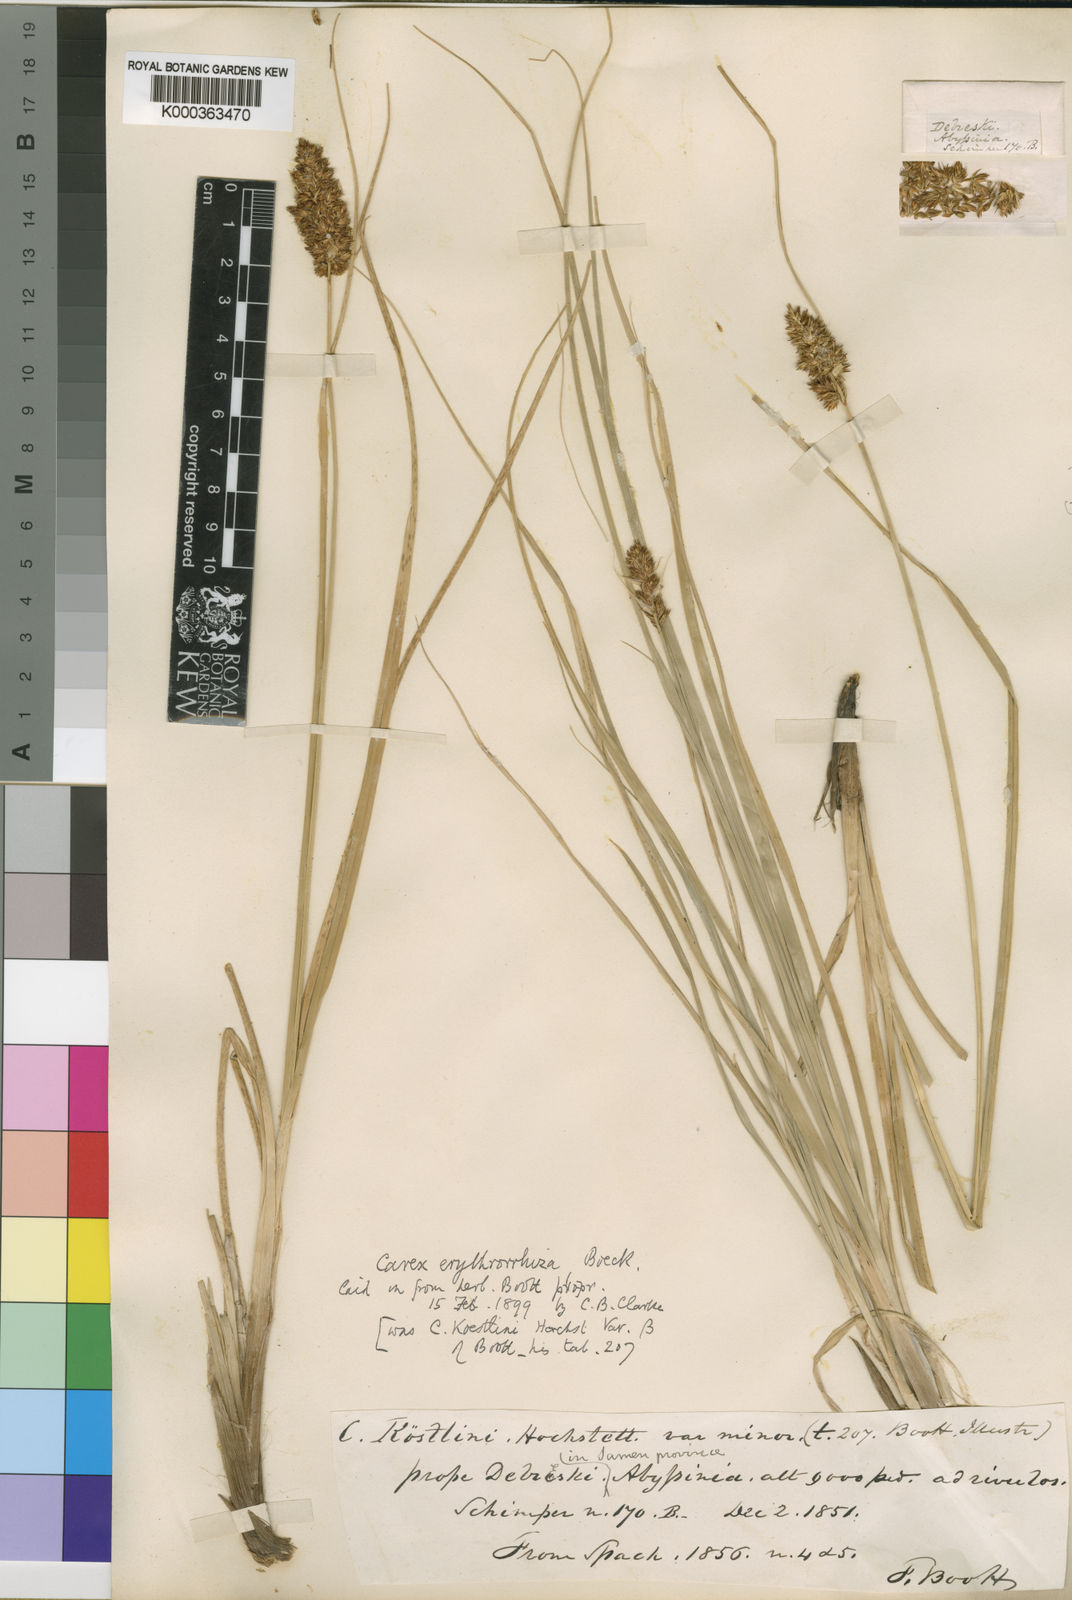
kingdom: Plantae
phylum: Tracheophyta
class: Liliopsida
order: Poales
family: Cyperaceae
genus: Carex
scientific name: Carex erythrorrhiza
